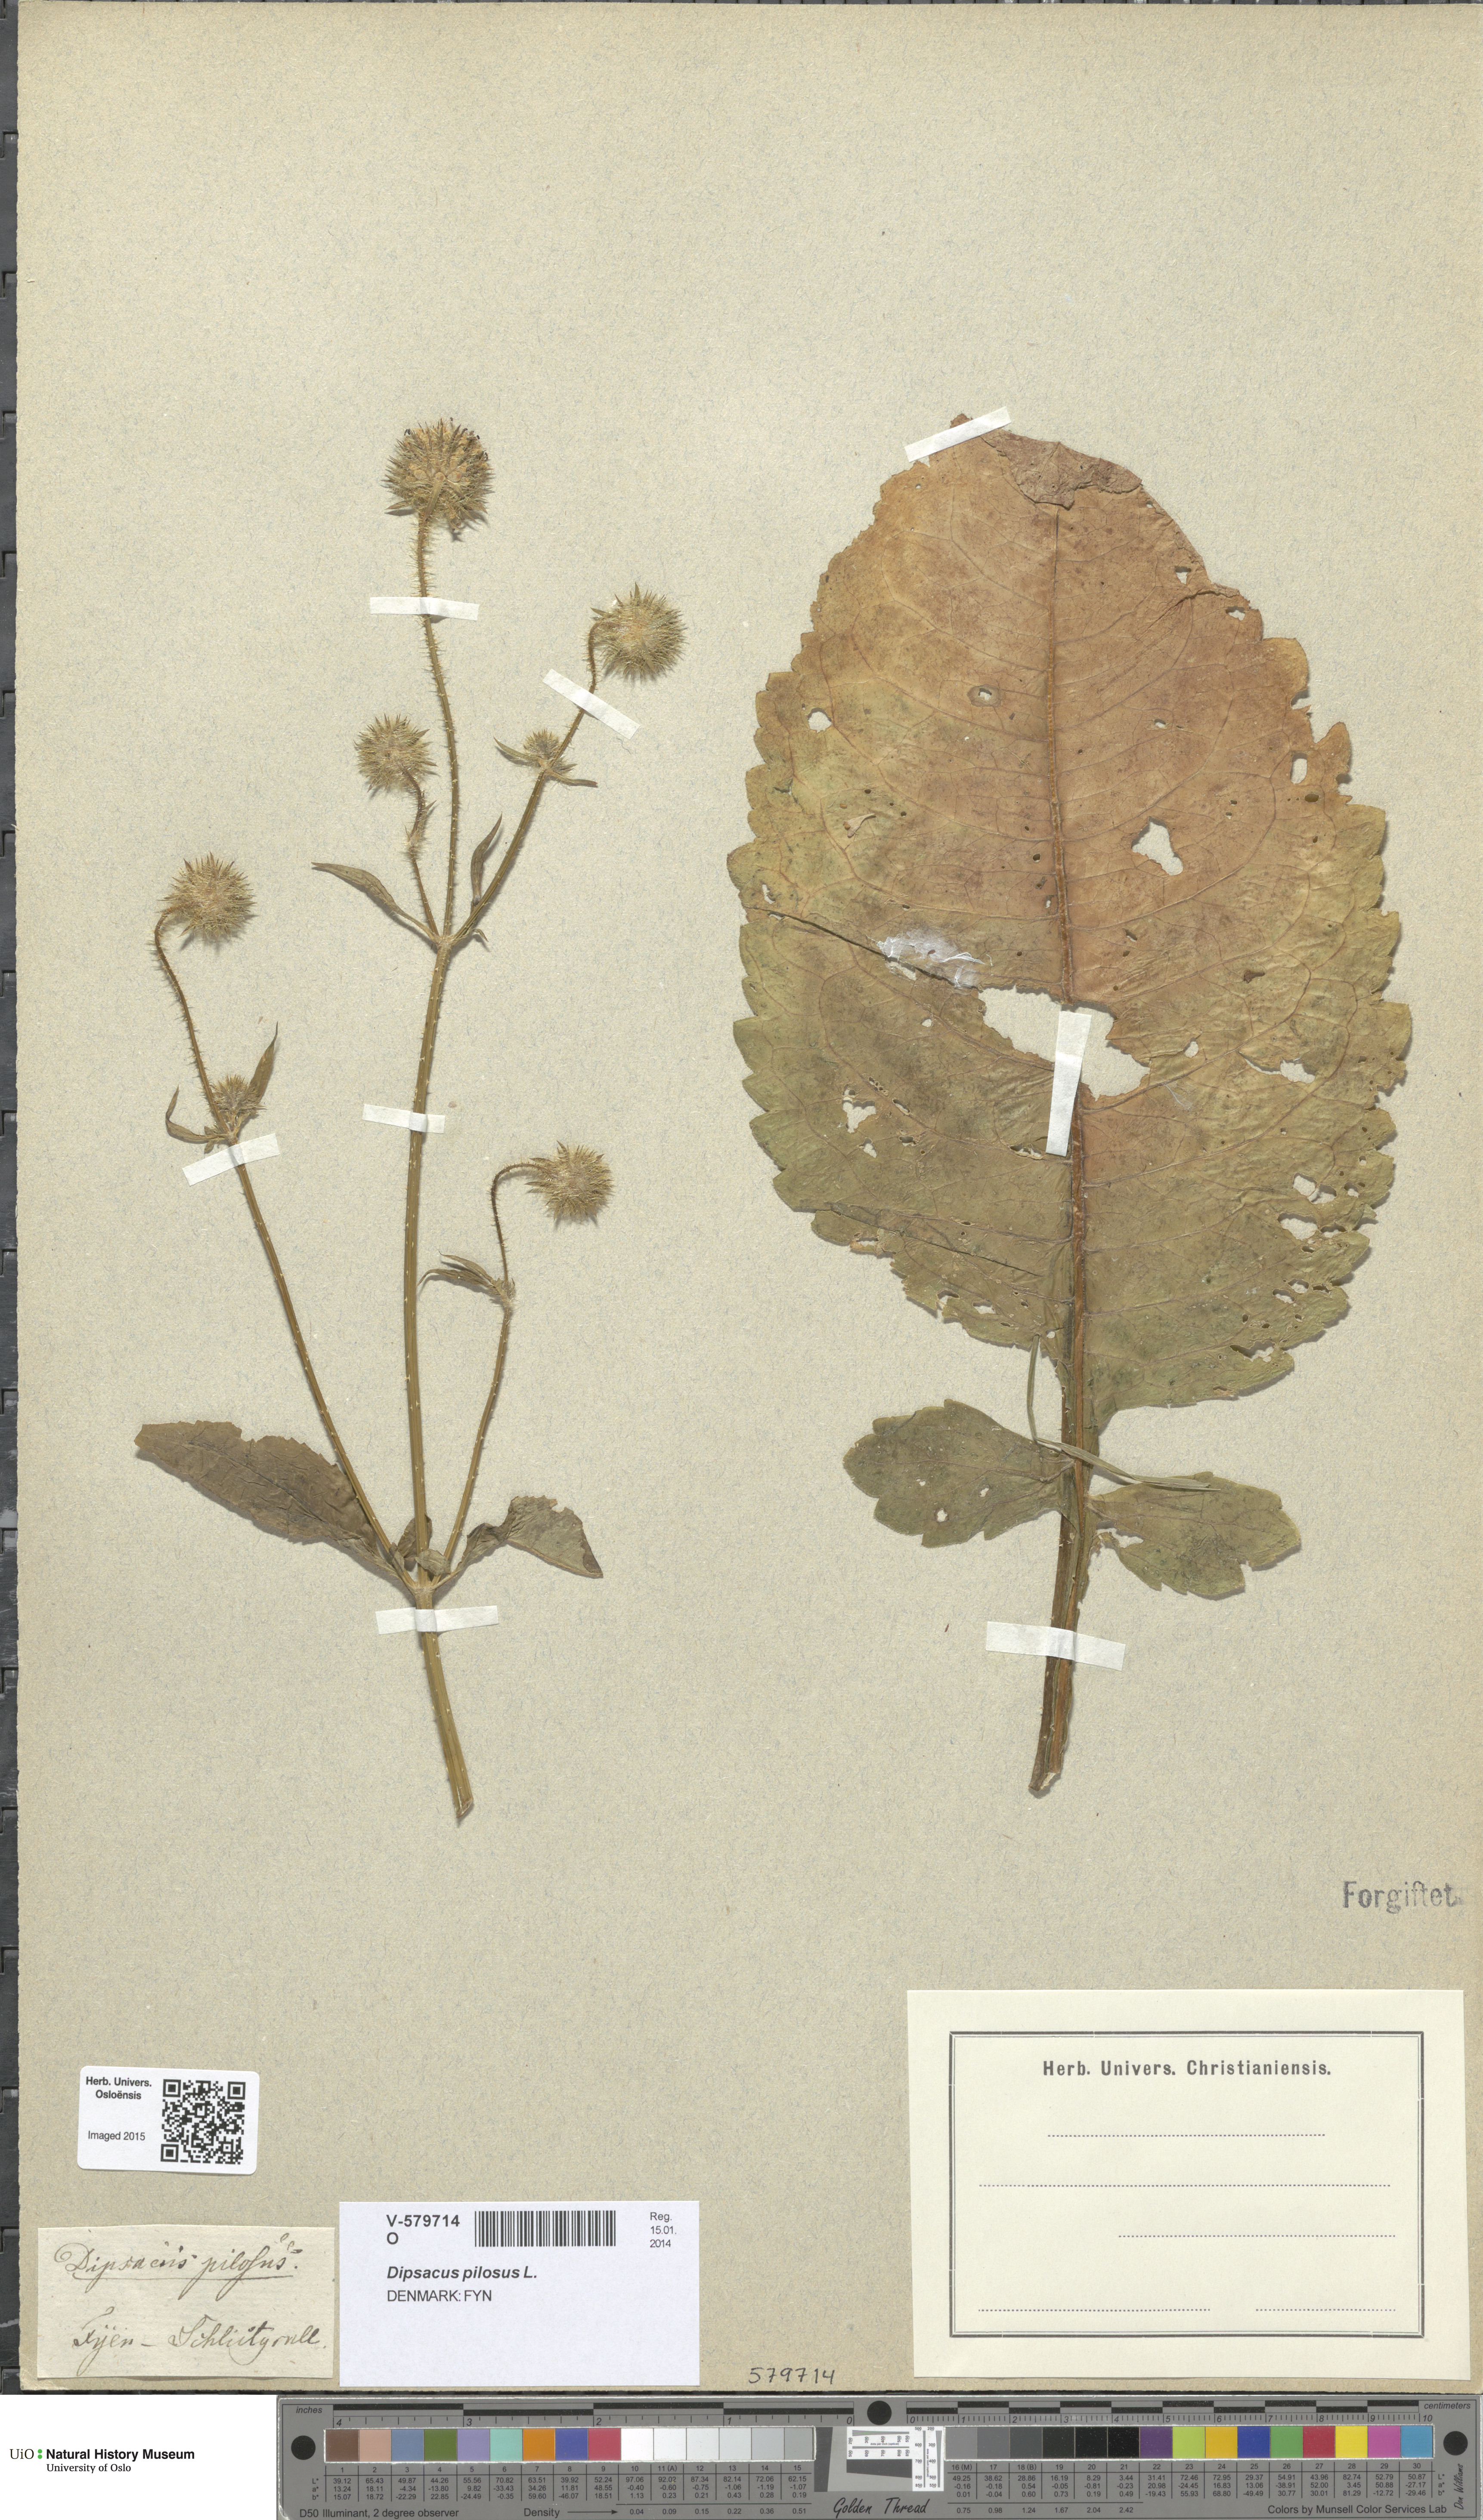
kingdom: Plantae
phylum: Tracheophyta
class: Magnoliopsida
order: Dipsacales
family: Caprifoliaceae
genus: Dipsacus
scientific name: Dipsacus pilosus
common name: Small teasel
